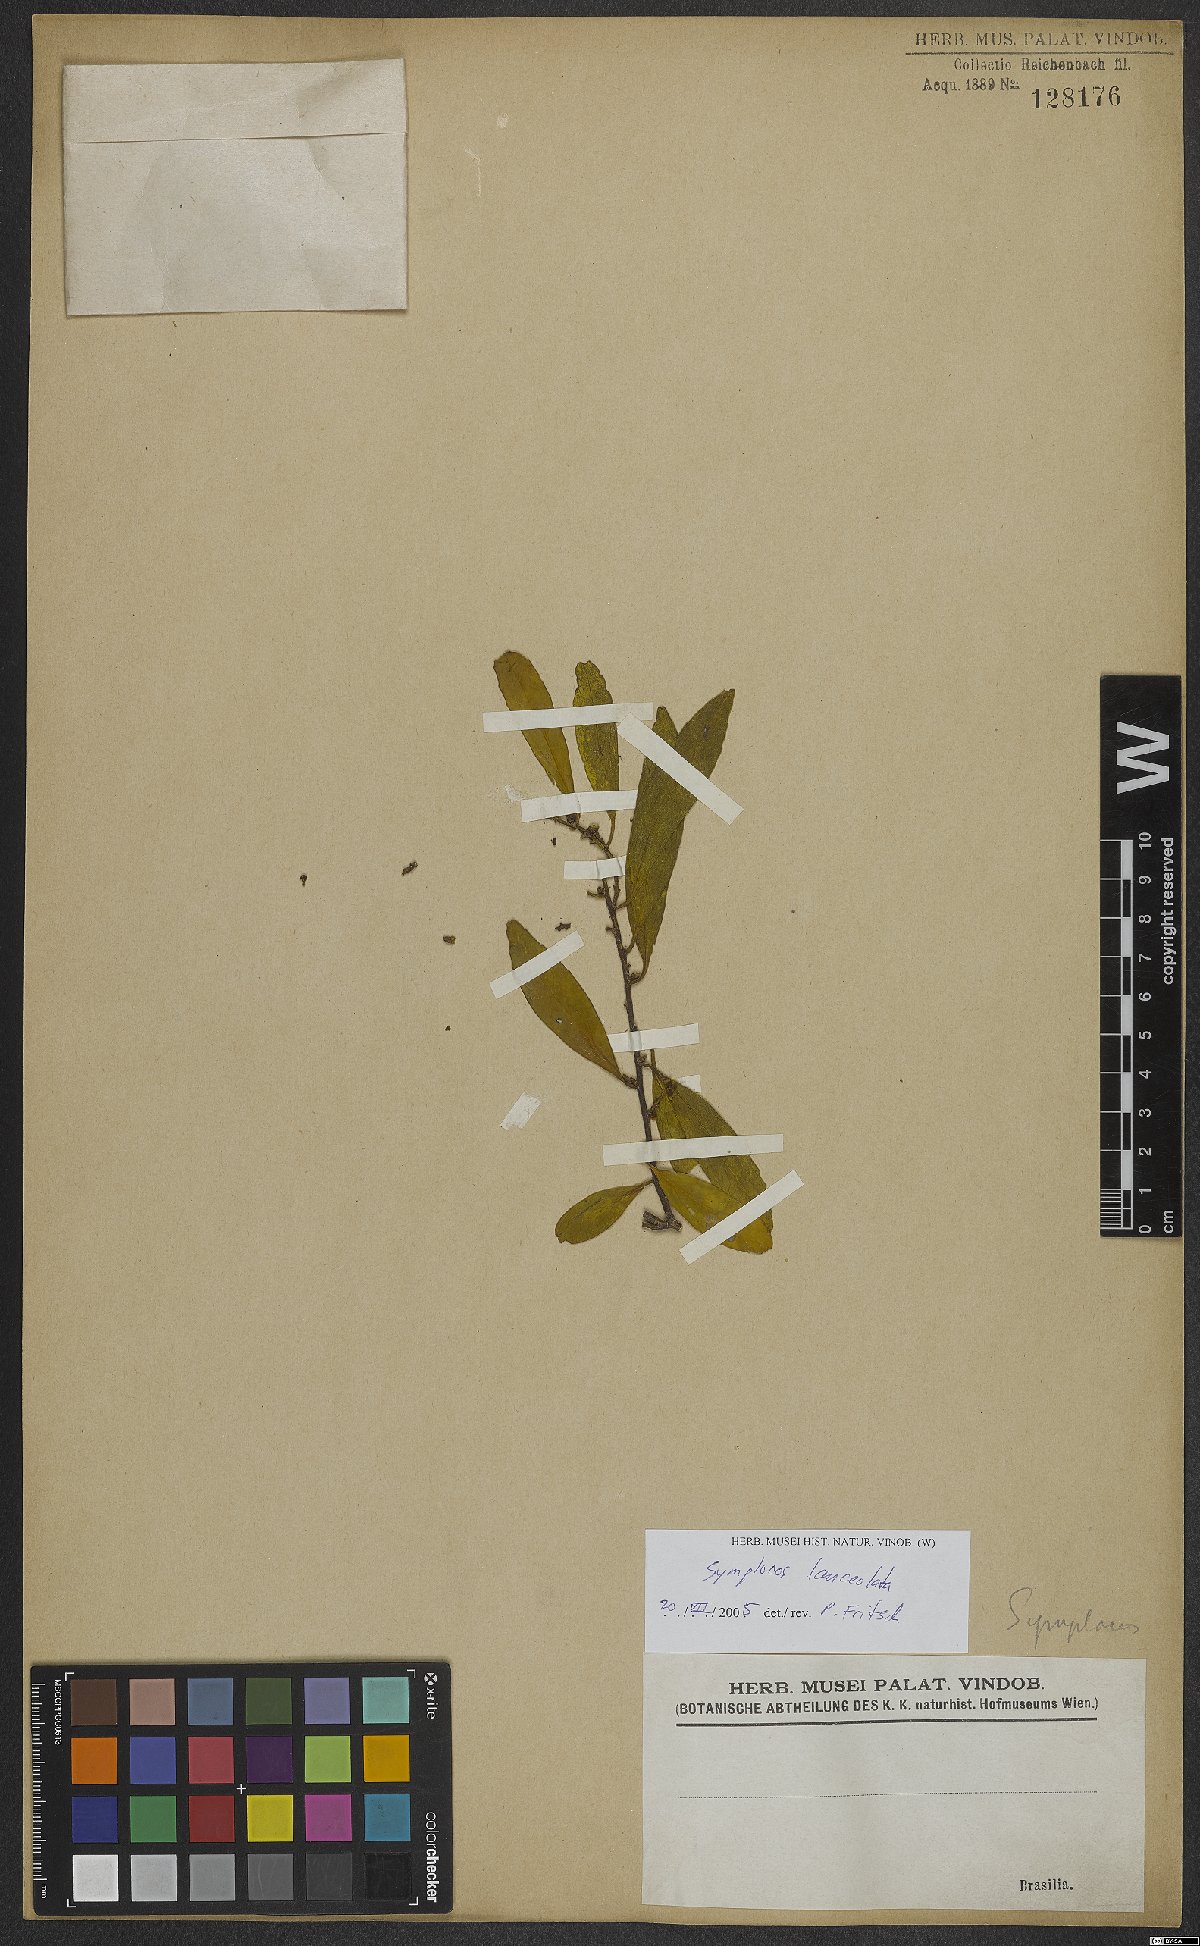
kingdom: Plantae
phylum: Tracheophyta
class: Magnoliopsida
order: Ericales
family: Symplocaceae
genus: Symplocos
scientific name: Symplocos oblongifolia
